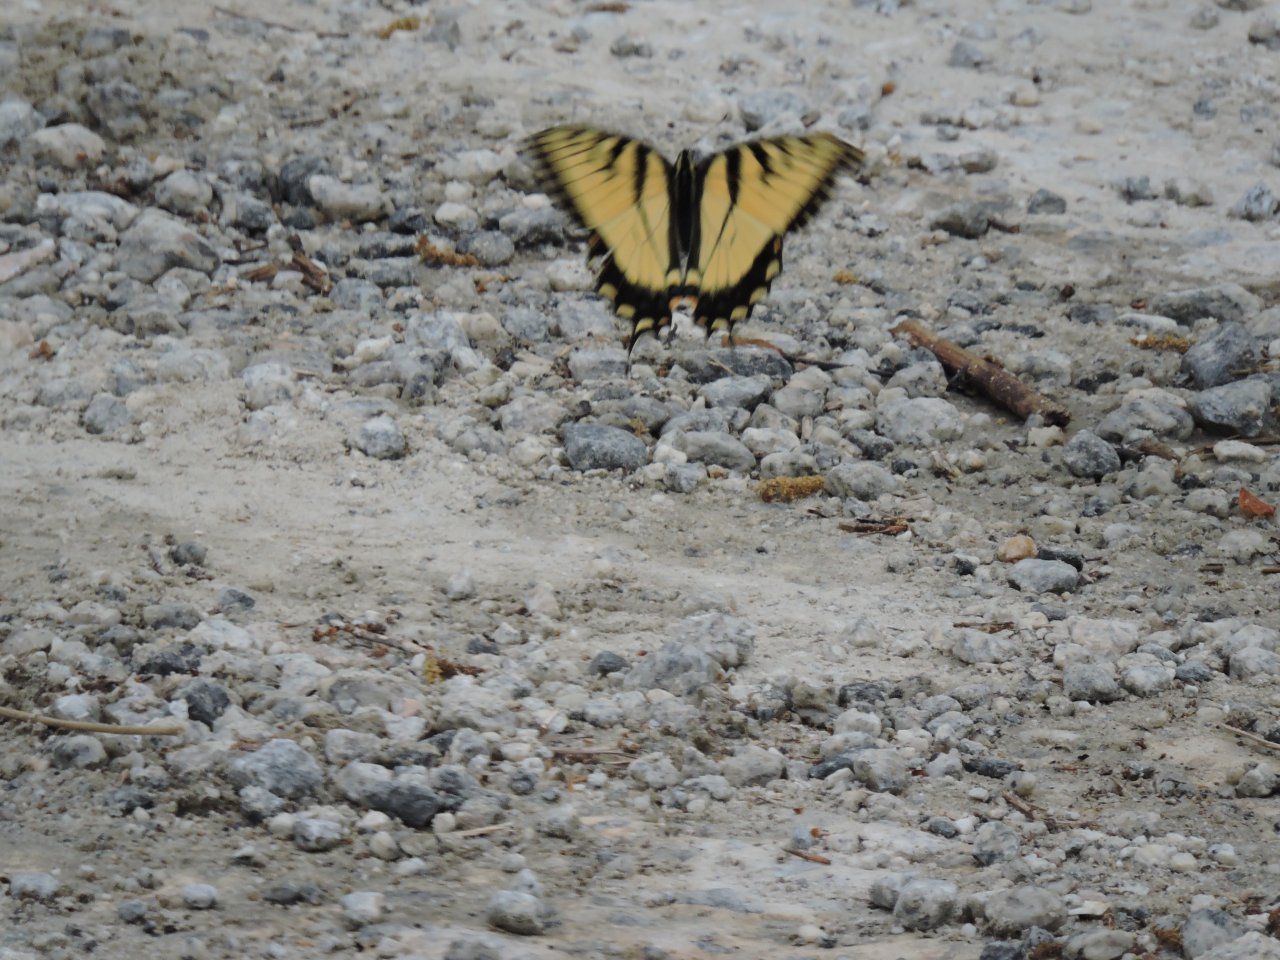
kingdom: Animalia
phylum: Arthropoda
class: Insecta
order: Lepidoptera
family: Papilionidae
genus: Pterourus
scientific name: Pterourus glaucus
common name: Eastern Tiger Swallowtail
